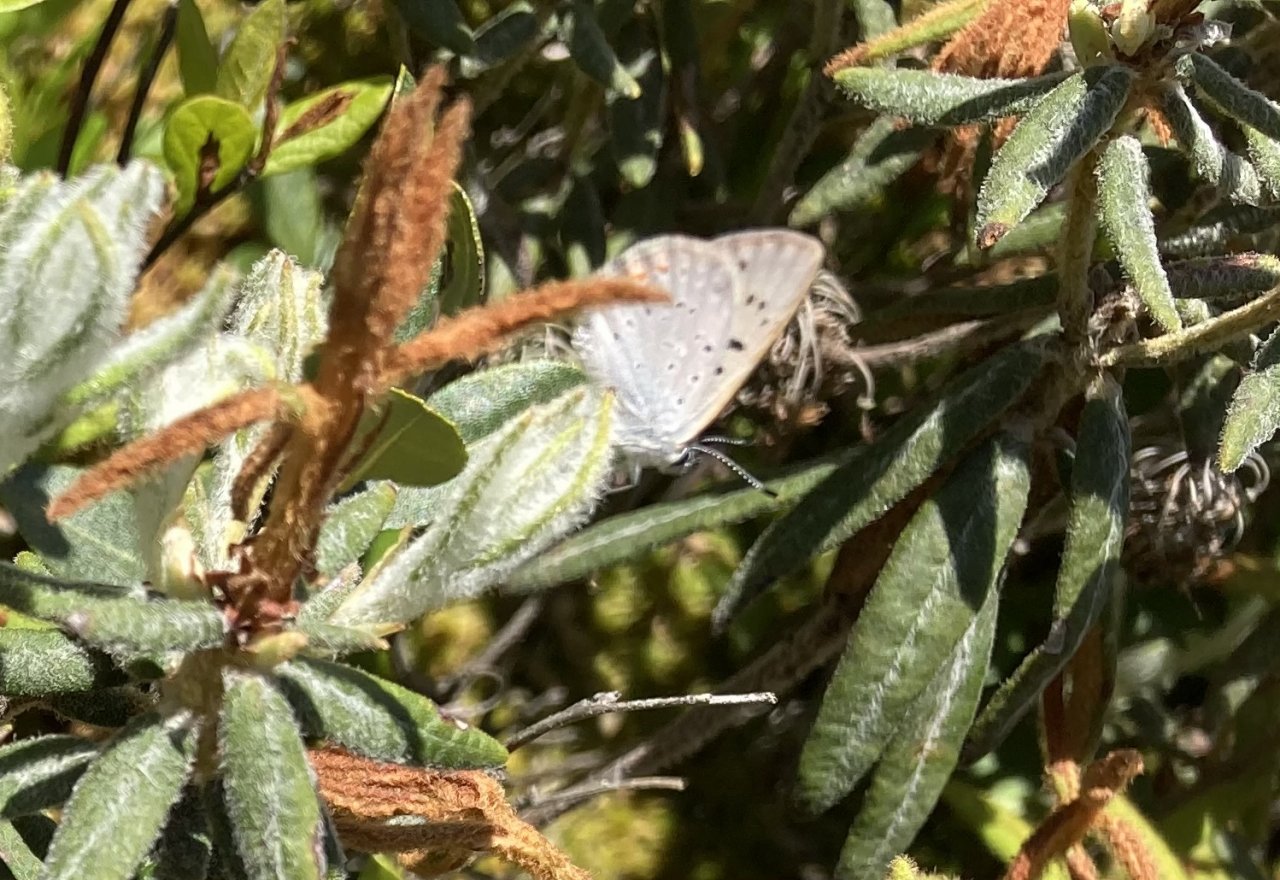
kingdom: Animalia
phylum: Arthropoda
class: Insecta
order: Lepidoptera
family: Sesiidae
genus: Sesia
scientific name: Sesia Lycaena epixanthe
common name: Bog Copper
